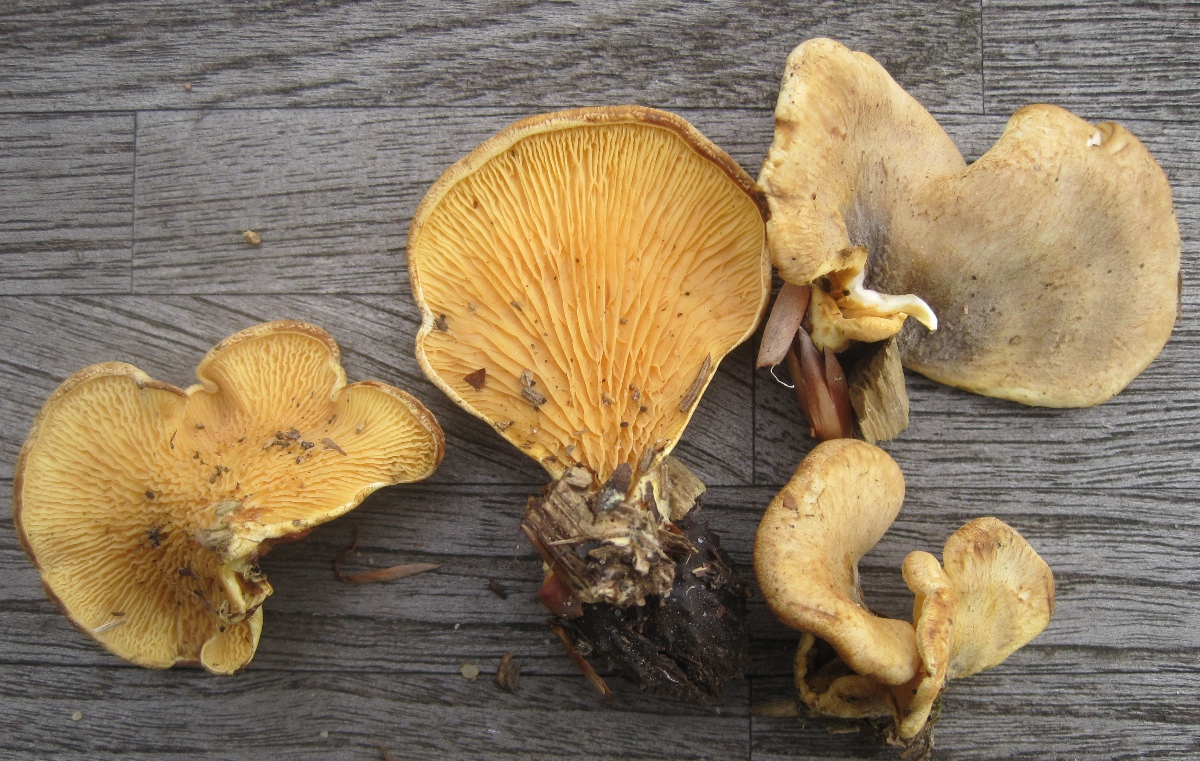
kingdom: Fungi
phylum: Basidiomycota
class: Agaricomycetes
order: Boletales
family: Tapinellaceae
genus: Tapinella
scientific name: Tapinella panuoides
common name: tømmer-viftesvamp
